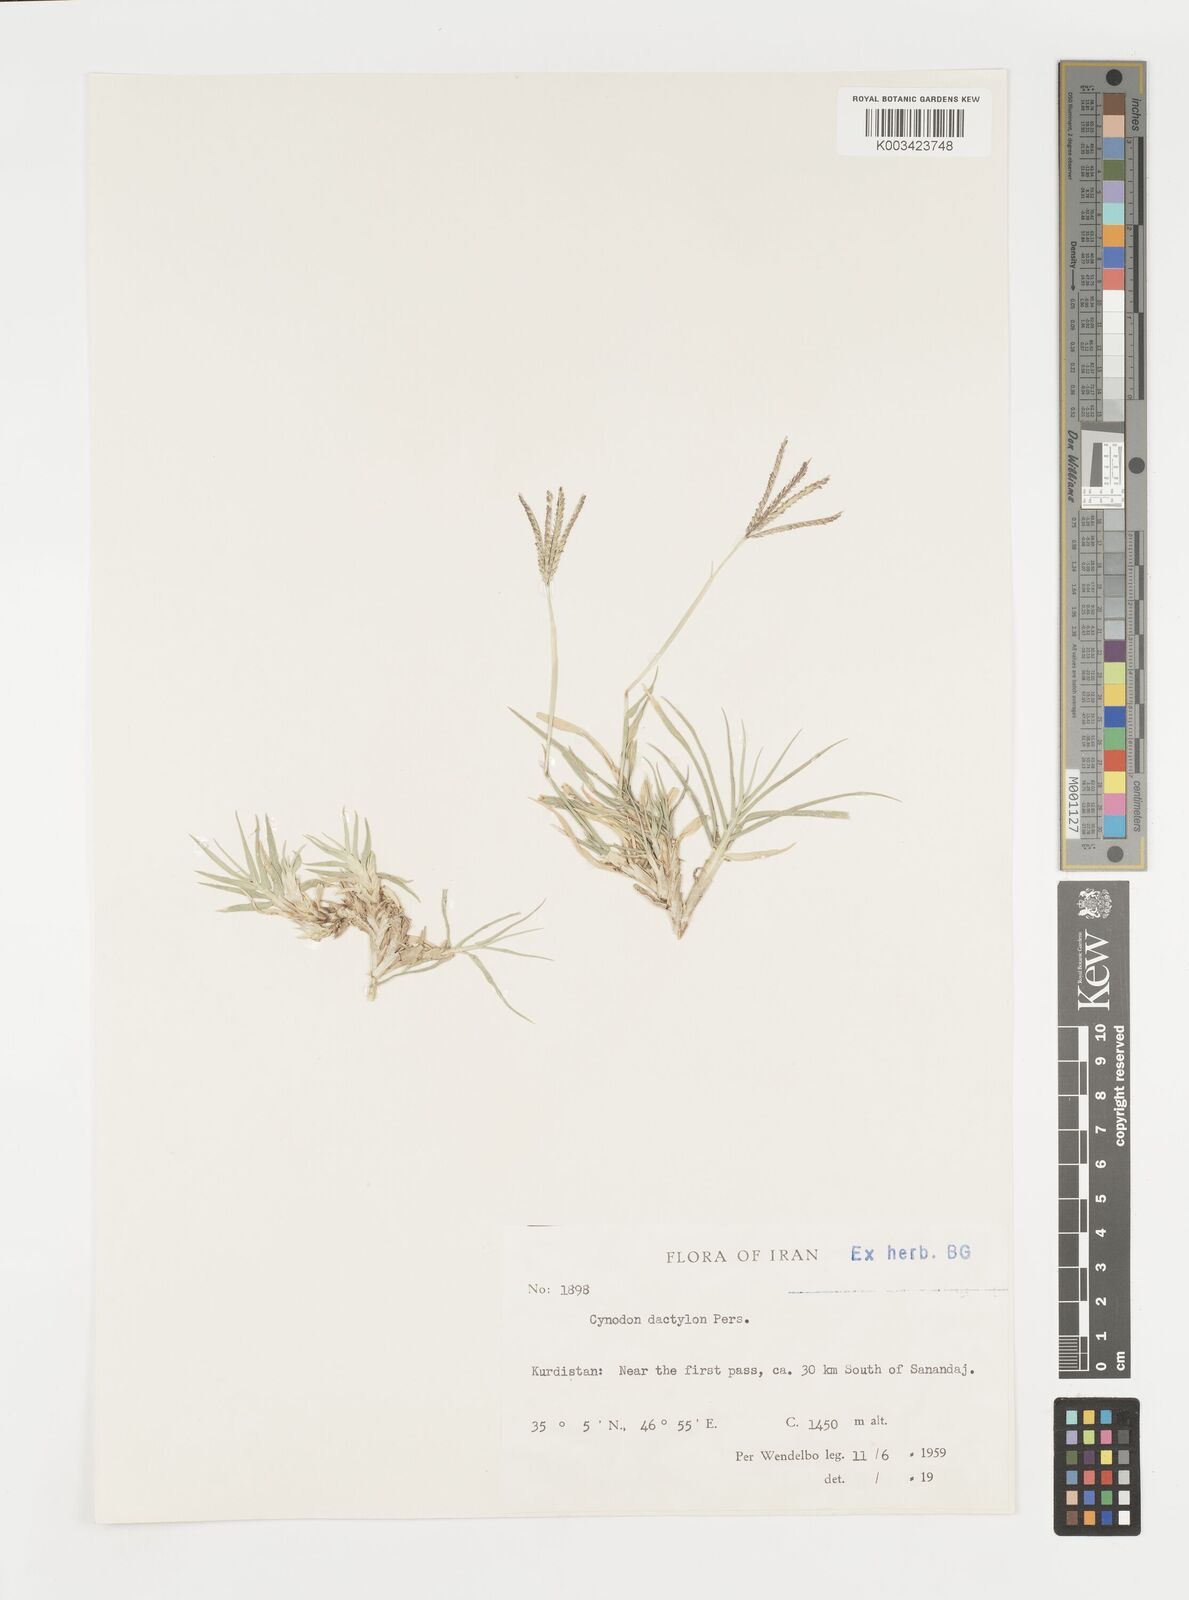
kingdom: Plantae
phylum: Tracheophyta
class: Liliopsida
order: Poales
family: Poaceae
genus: Cynodon
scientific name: Cynodon dactylon
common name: Bermuda grass
